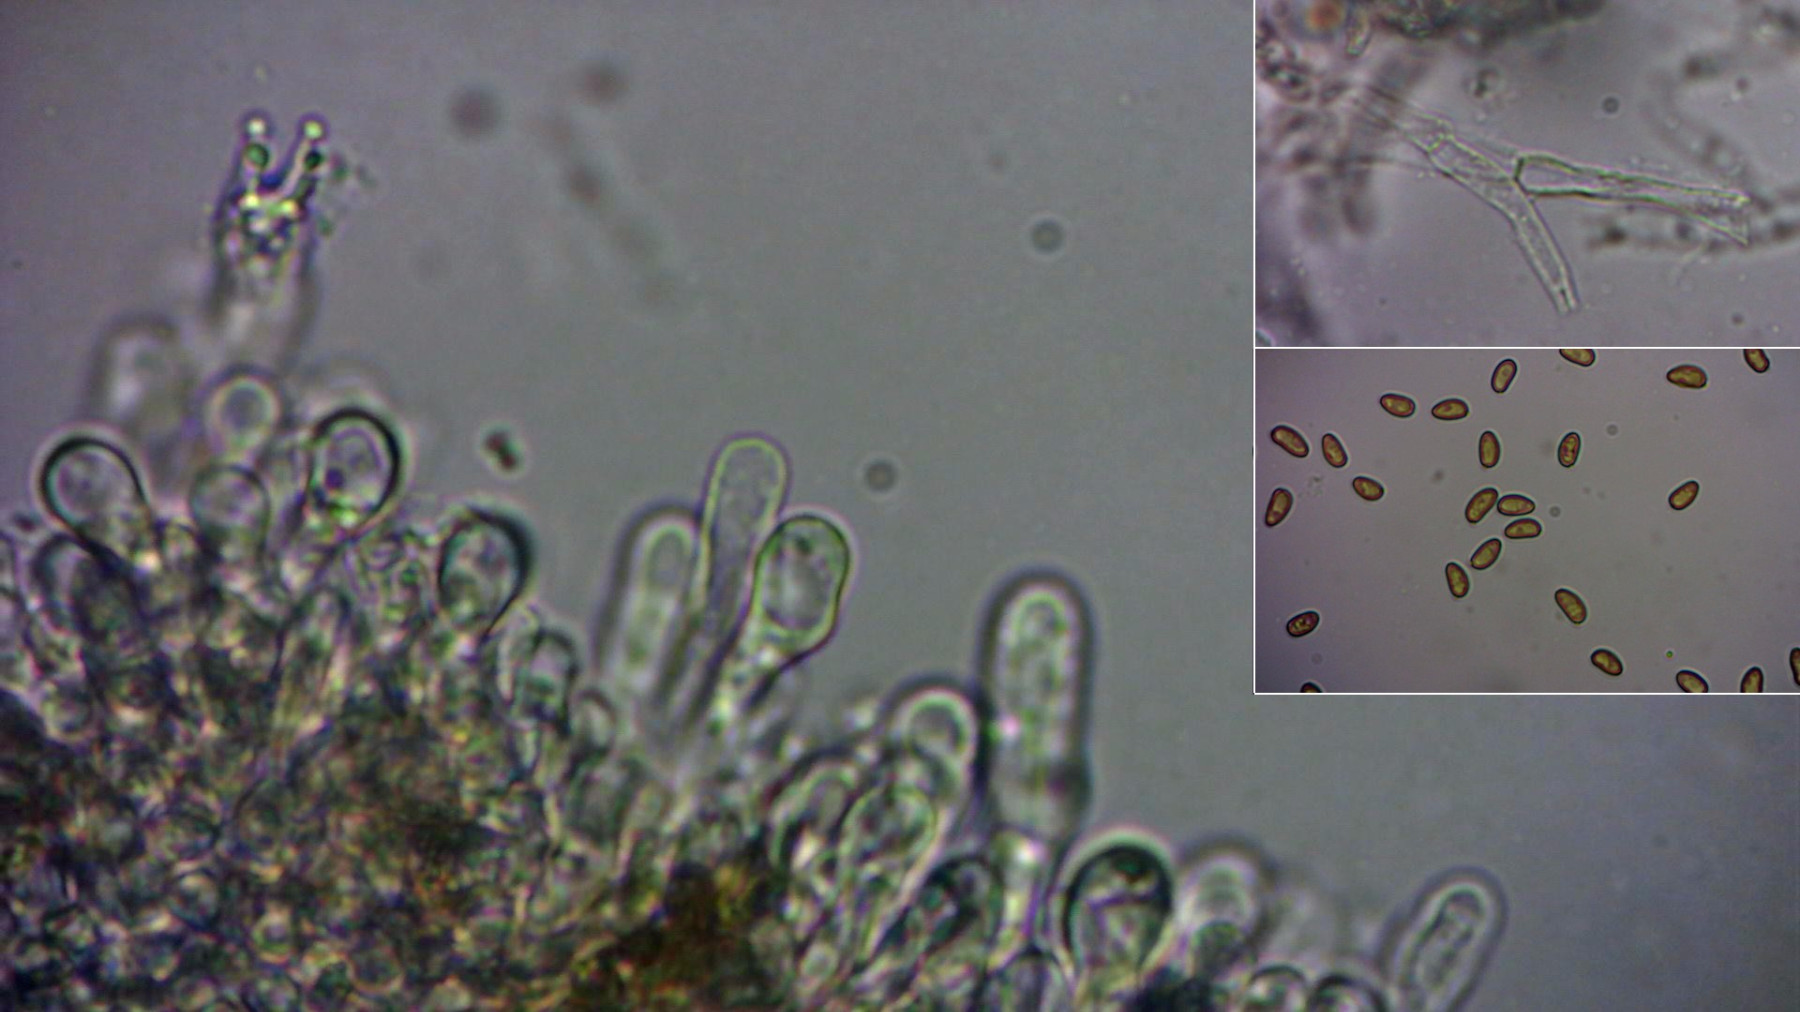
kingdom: Fungi
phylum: Basidiomycota
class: Agaricomycetes
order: Agaricales
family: Inocybaceae
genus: Inocybe
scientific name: Inocybe dulcamara
